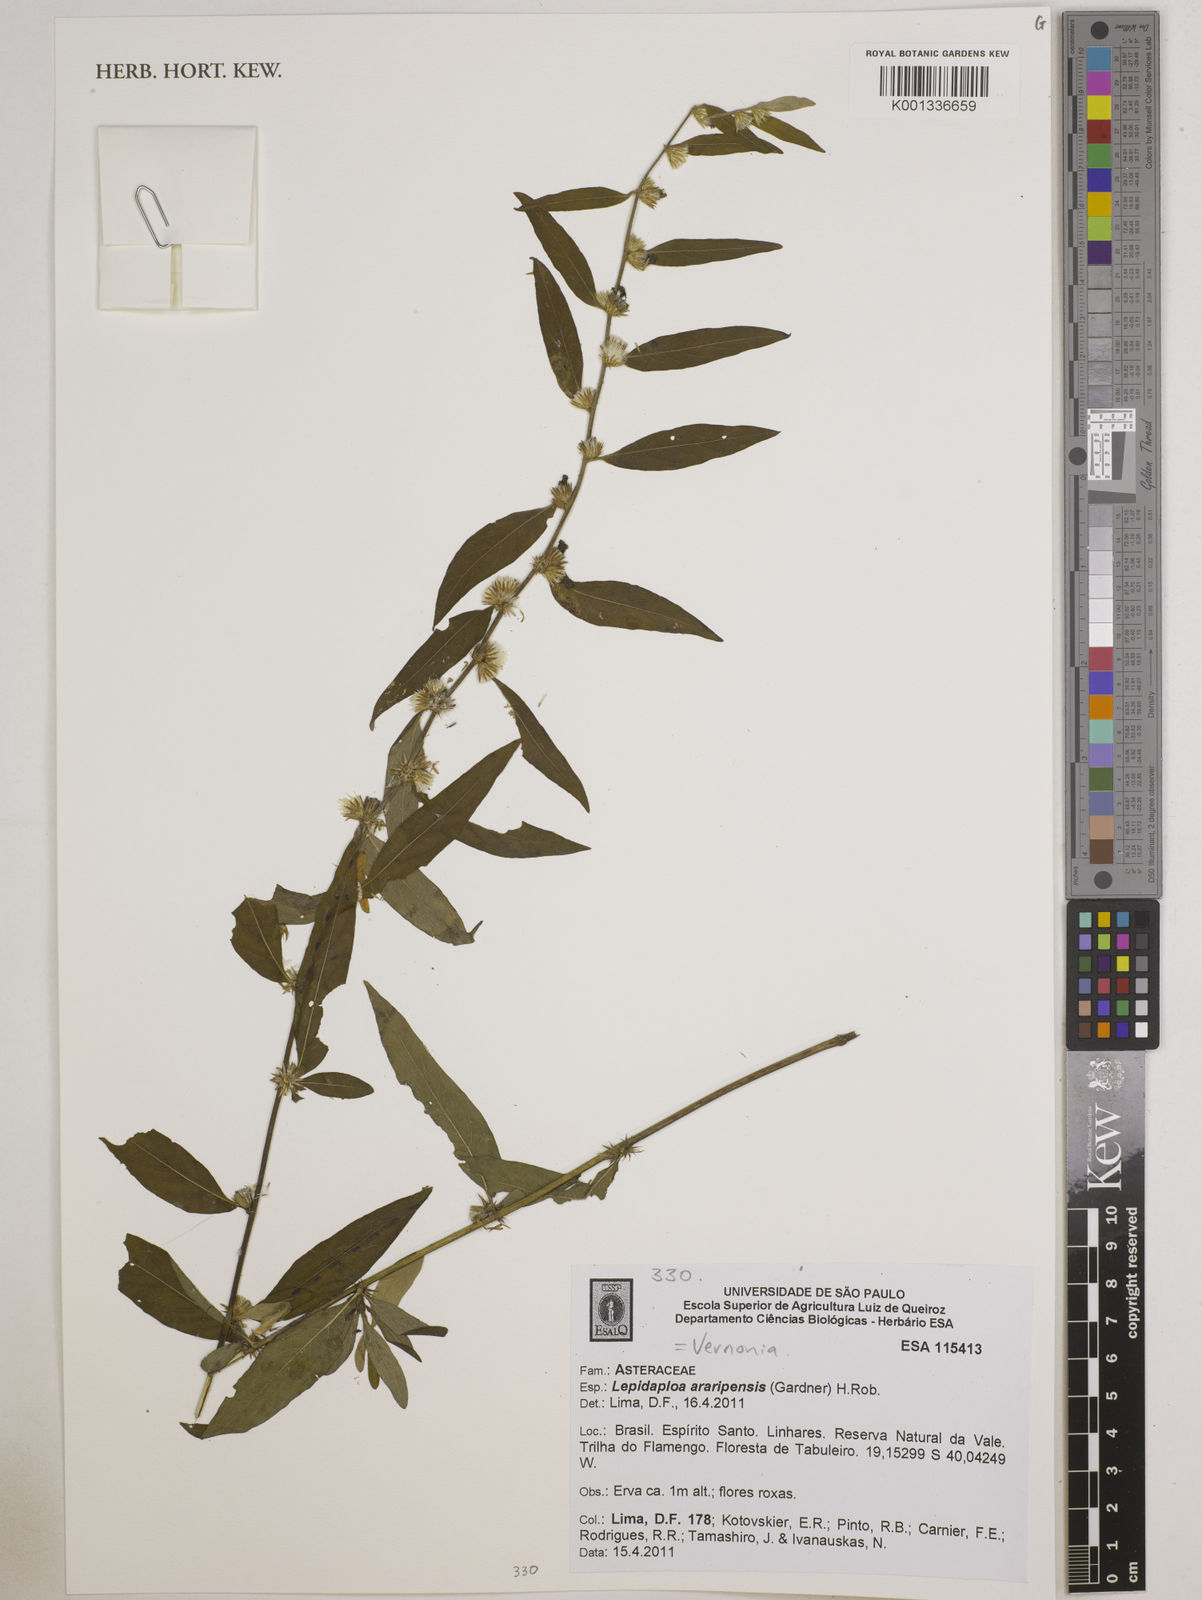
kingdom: Plantae
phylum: Tracheophyta
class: Magnoliopsida
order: Asterales
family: Asteraceae
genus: Lepidaploa
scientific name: Lepidaploa araripensis
